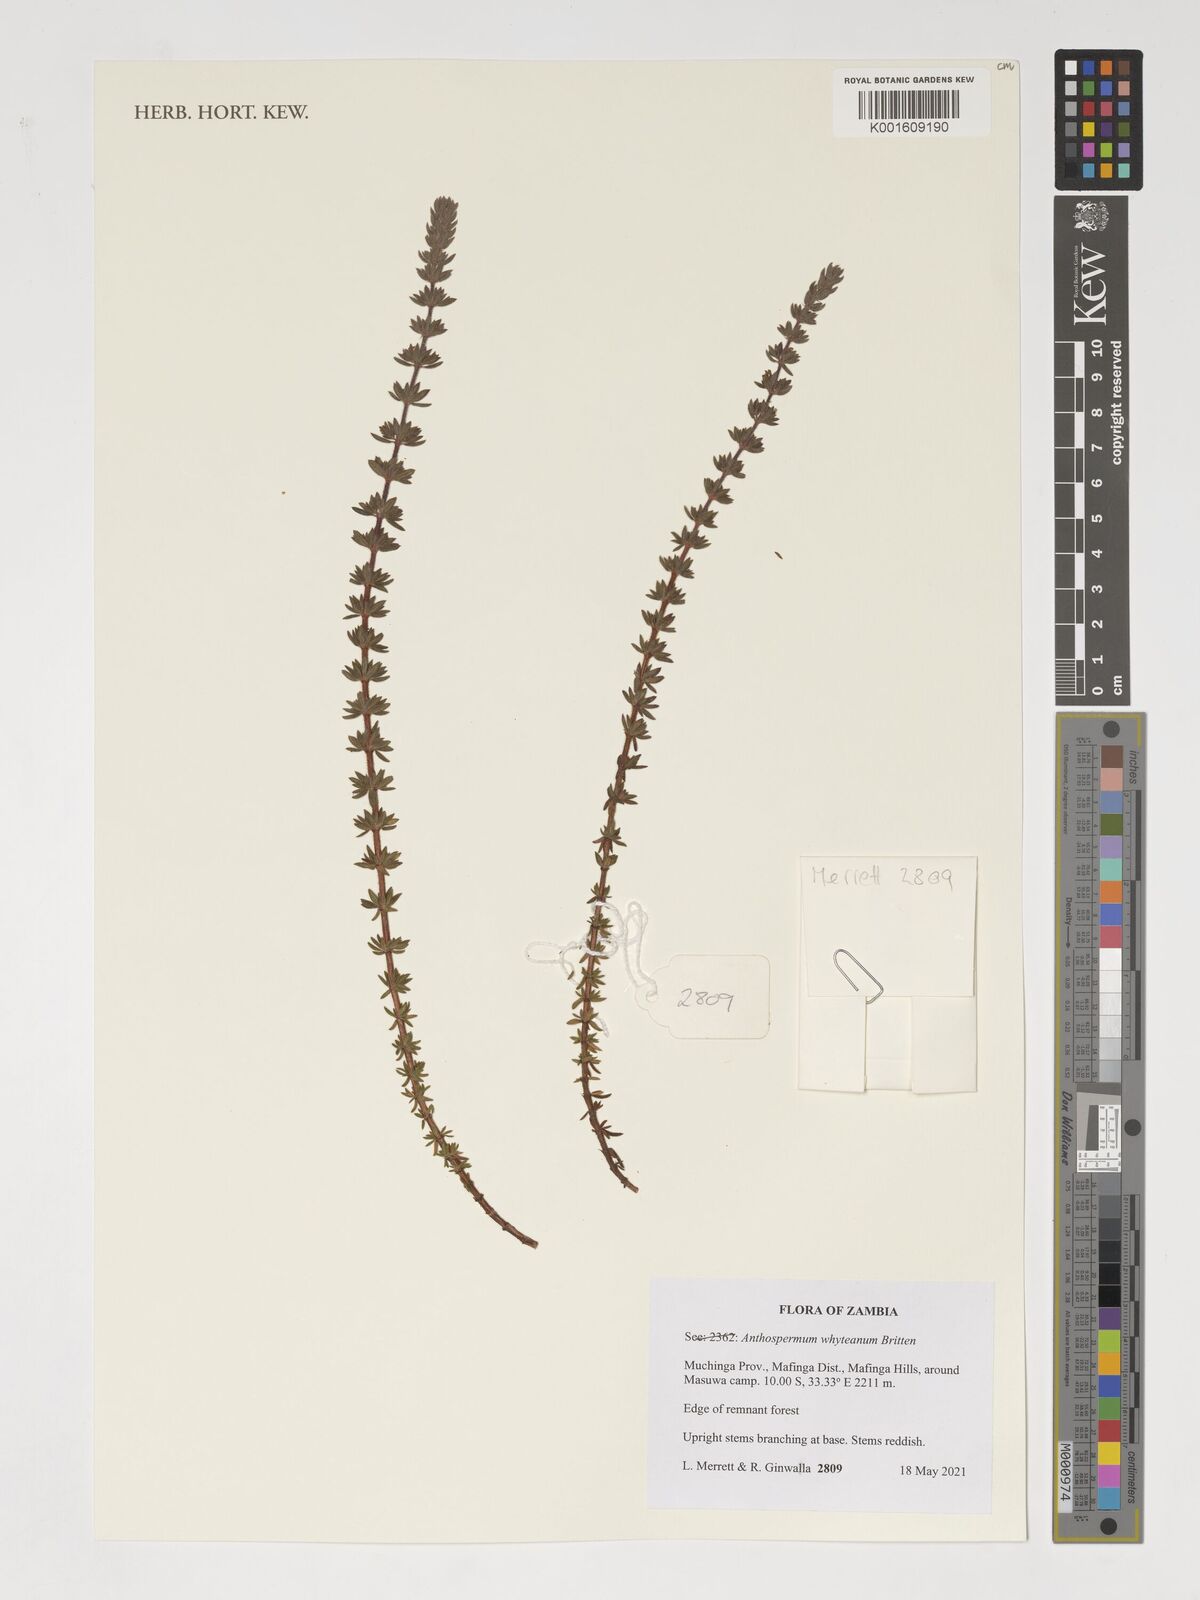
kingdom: Plantae
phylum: Tracheophyta
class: Magnoliopsida
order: Gentianales
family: Rubiaceae
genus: Anthospermum
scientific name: Anthospermum whyteanum
